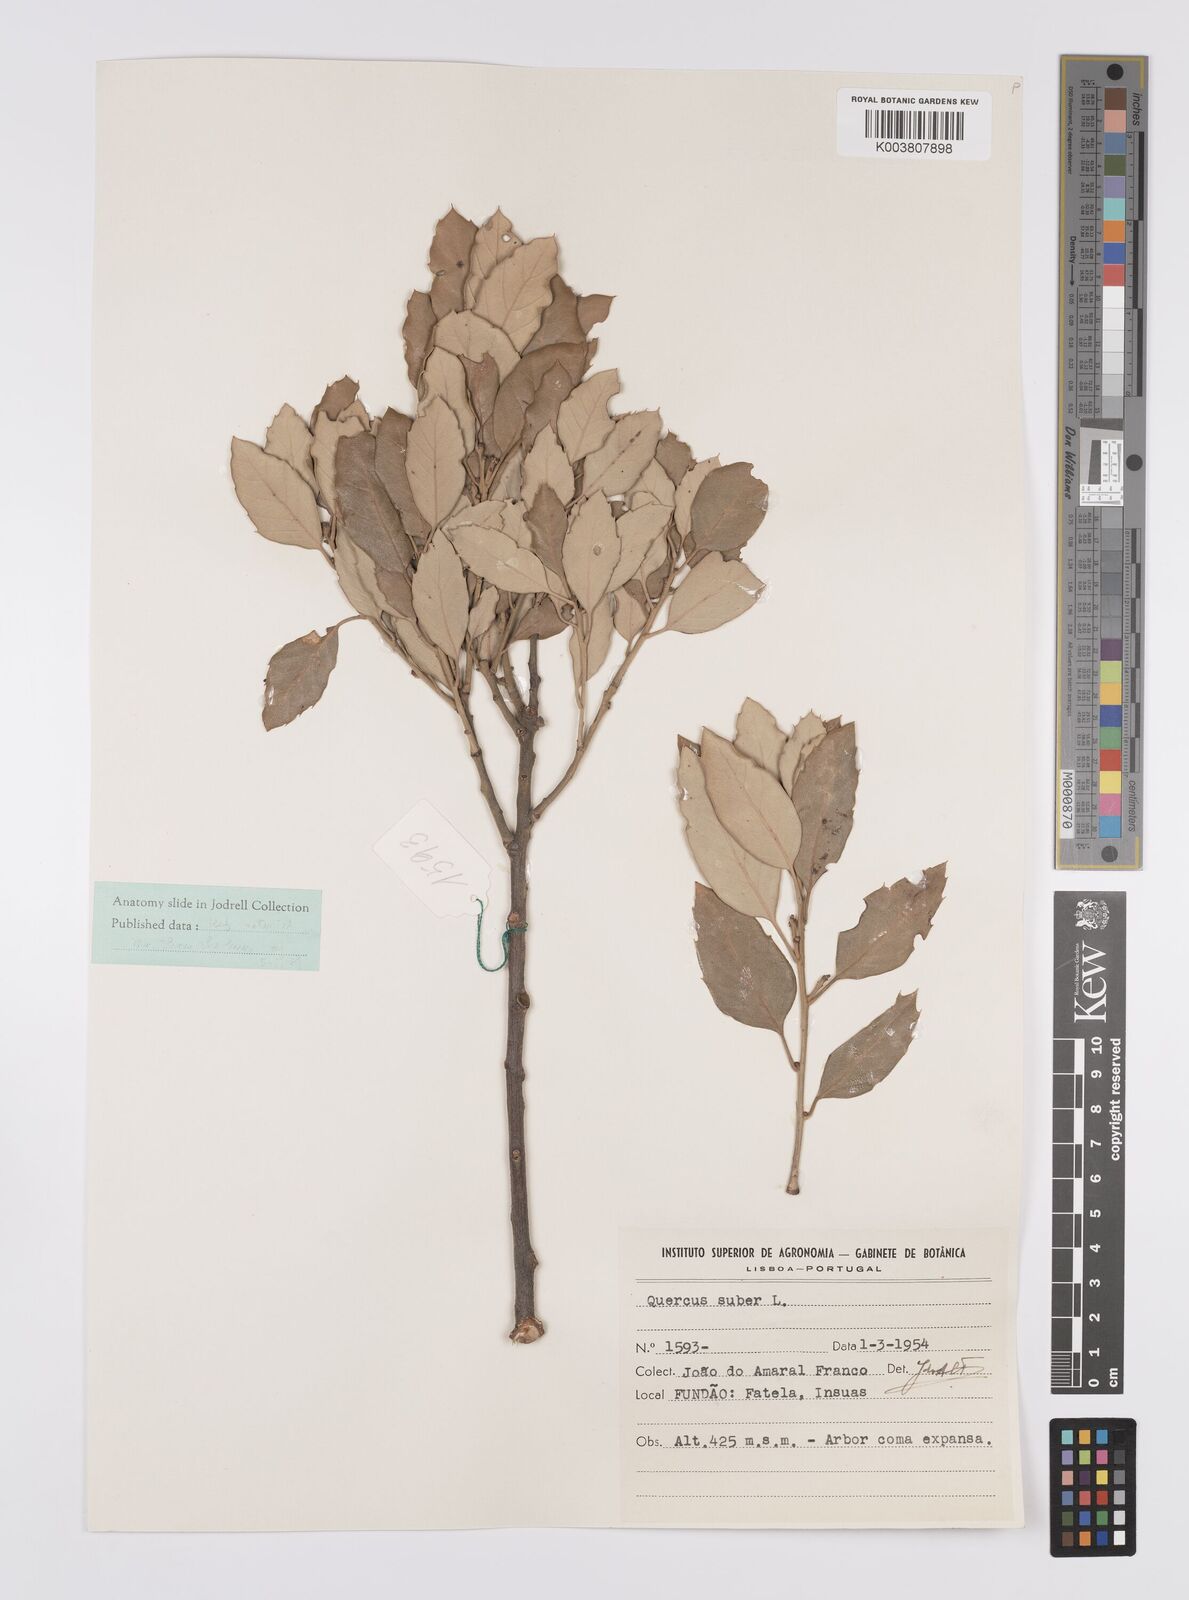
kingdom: Plantae
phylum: Tracheophyta
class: Magnoliopsida
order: Fagales
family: Fagaceae
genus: Quercus
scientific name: Quercus suber
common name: Cork oak
